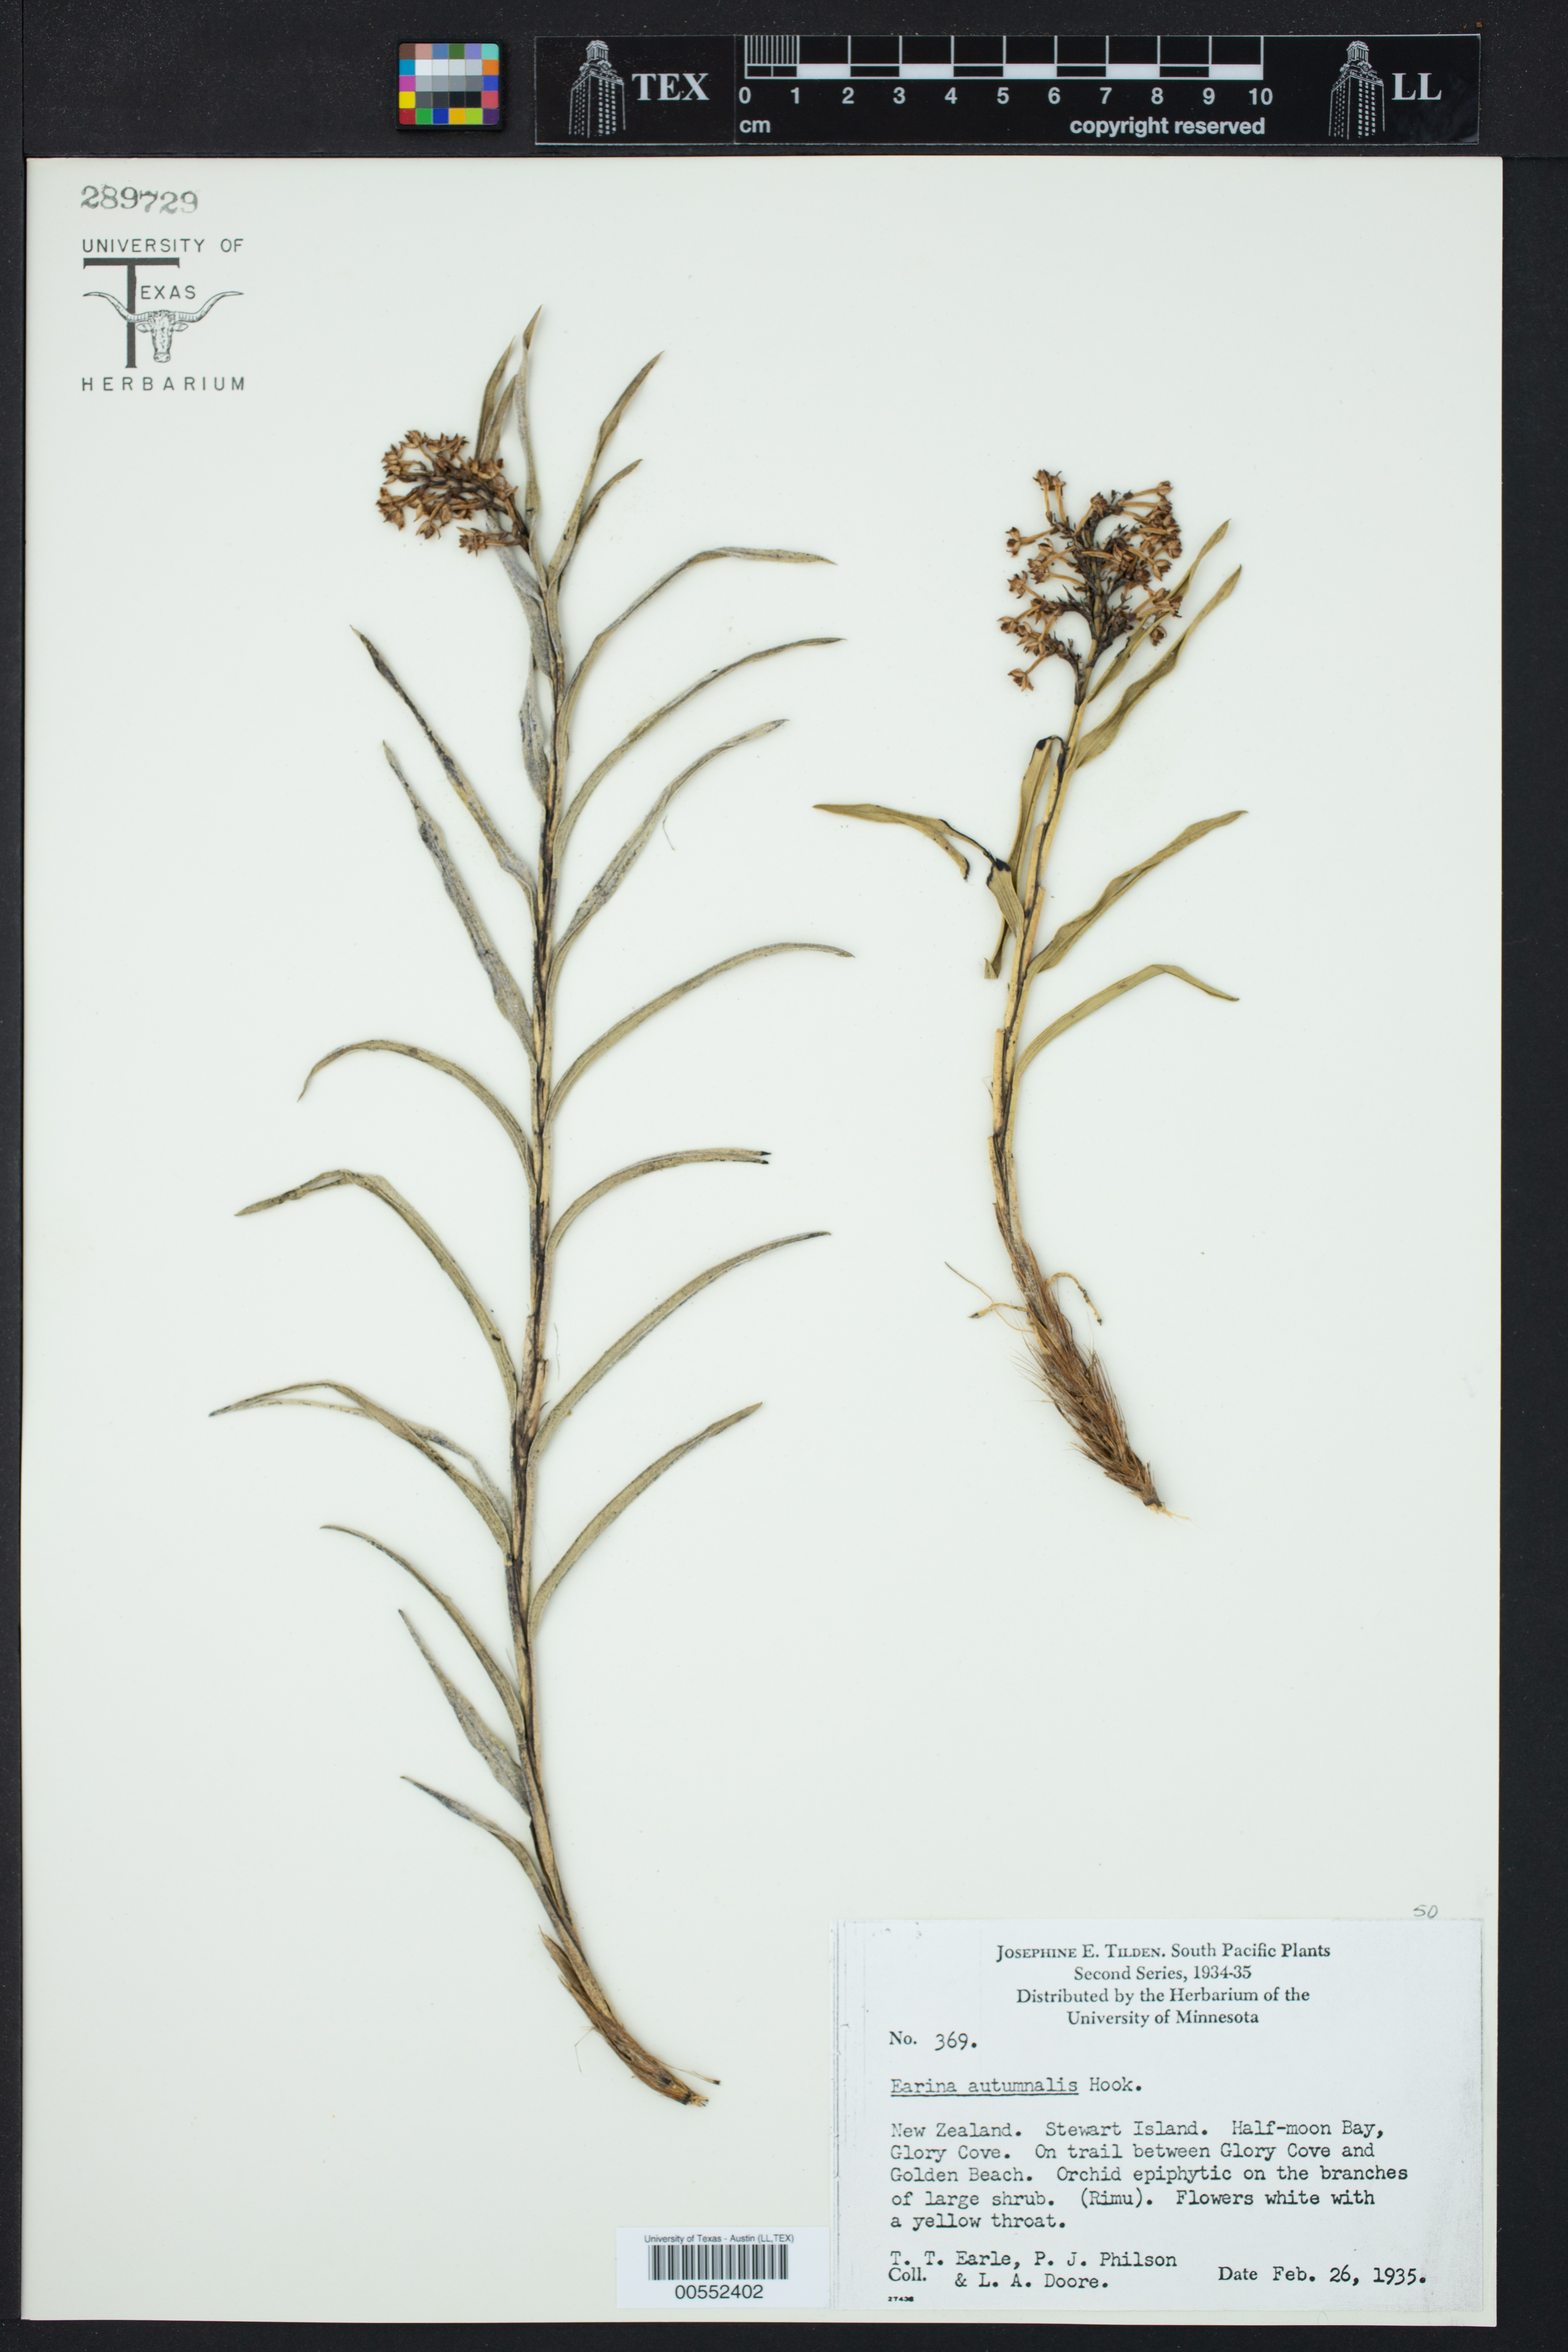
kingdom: Plantae
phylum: Tracheophyta
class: Liliopsida
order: Asparagales
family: Orchidaceae
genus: Earina
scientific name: Earina autumnalis
